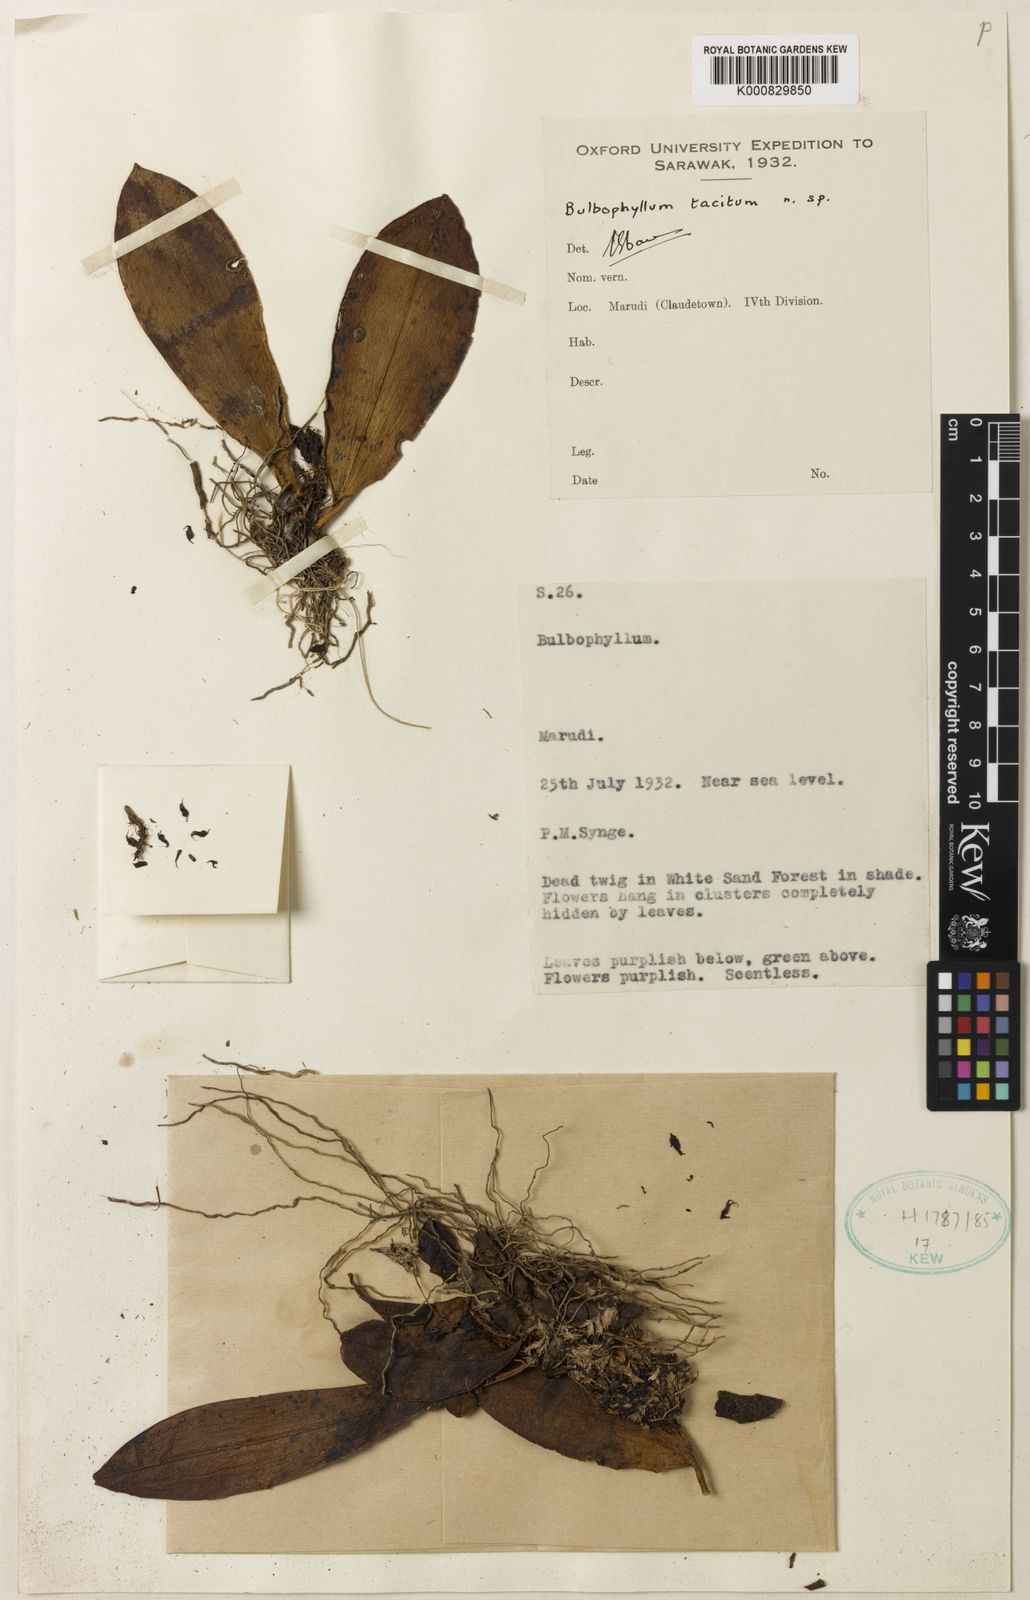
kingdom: Plantae
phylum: Tracheophyta
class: Liliopsida
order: Asparagales
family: Orchidaceae
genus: Bulbophyllum
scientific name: Bulbophyllum trifolium
